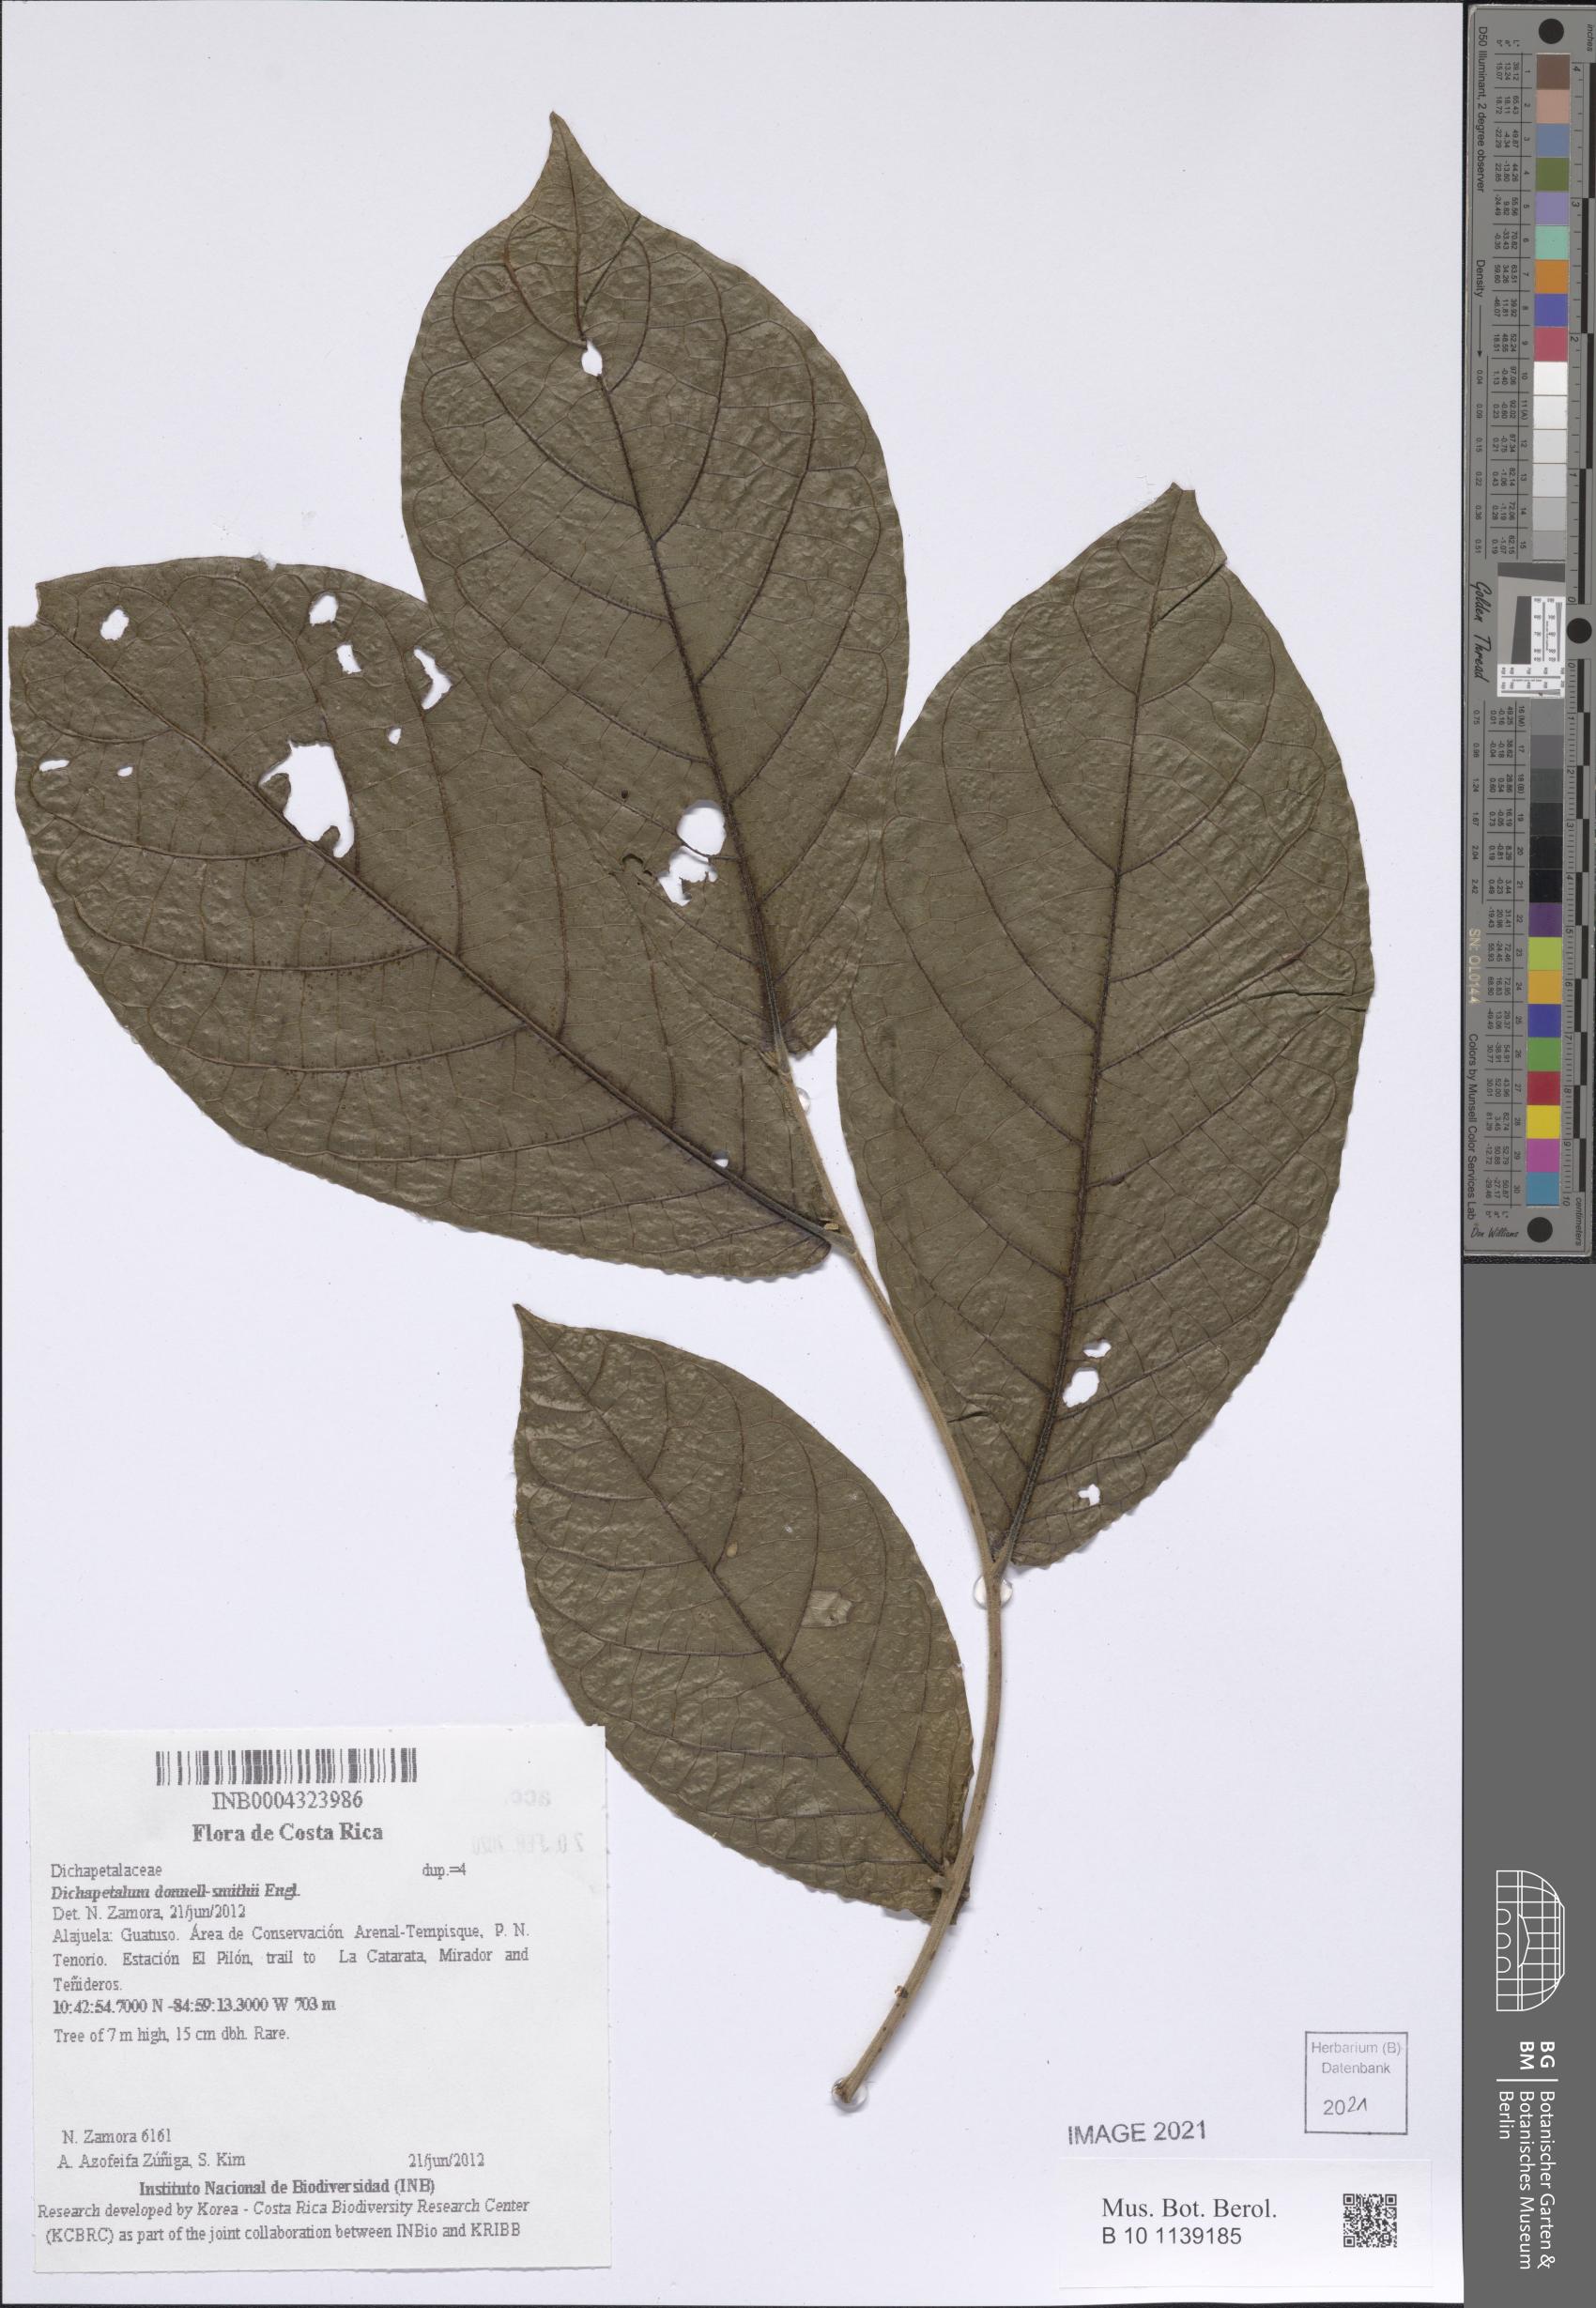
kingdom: Plantae
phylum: Tracheophyta
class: Magnoliopsida
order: Malpighiales
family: Dichapetalaceae
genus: Dichapetalum
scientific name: Dichapetalum donnell-smithii
